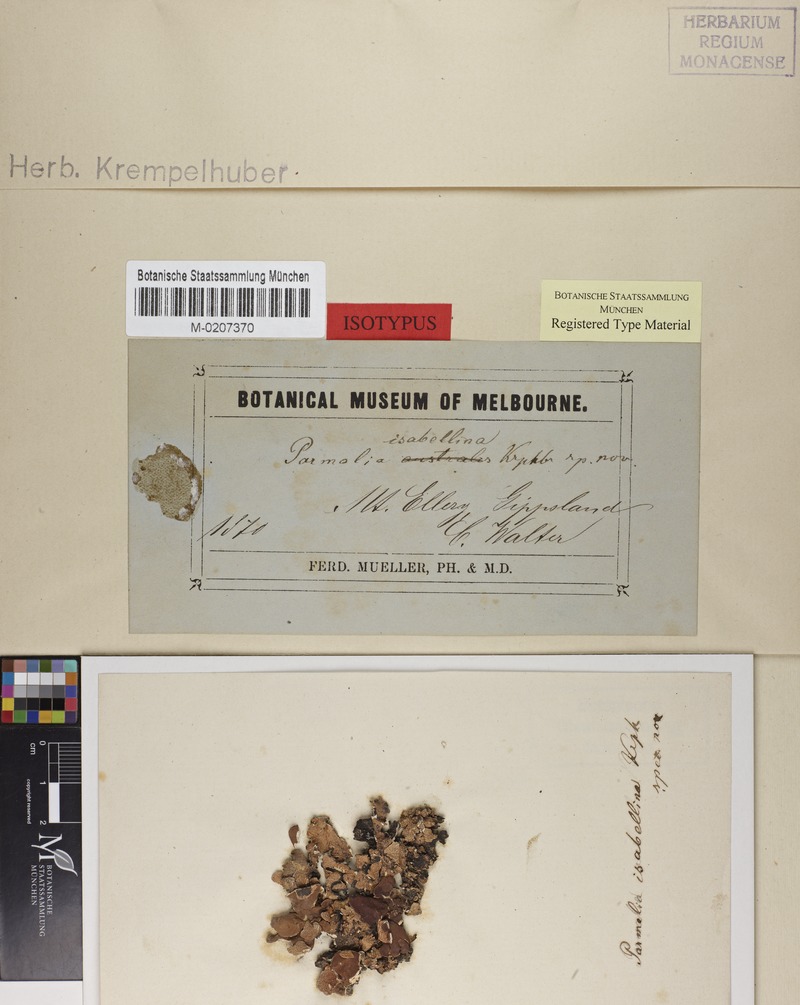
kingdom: Fungi
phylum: Ascomycota
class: Lecanoromycetes
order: Peltigerales
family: Lobariaceae
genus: Pseudocyphellaria
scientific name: Pseudocyphellaria glabra
